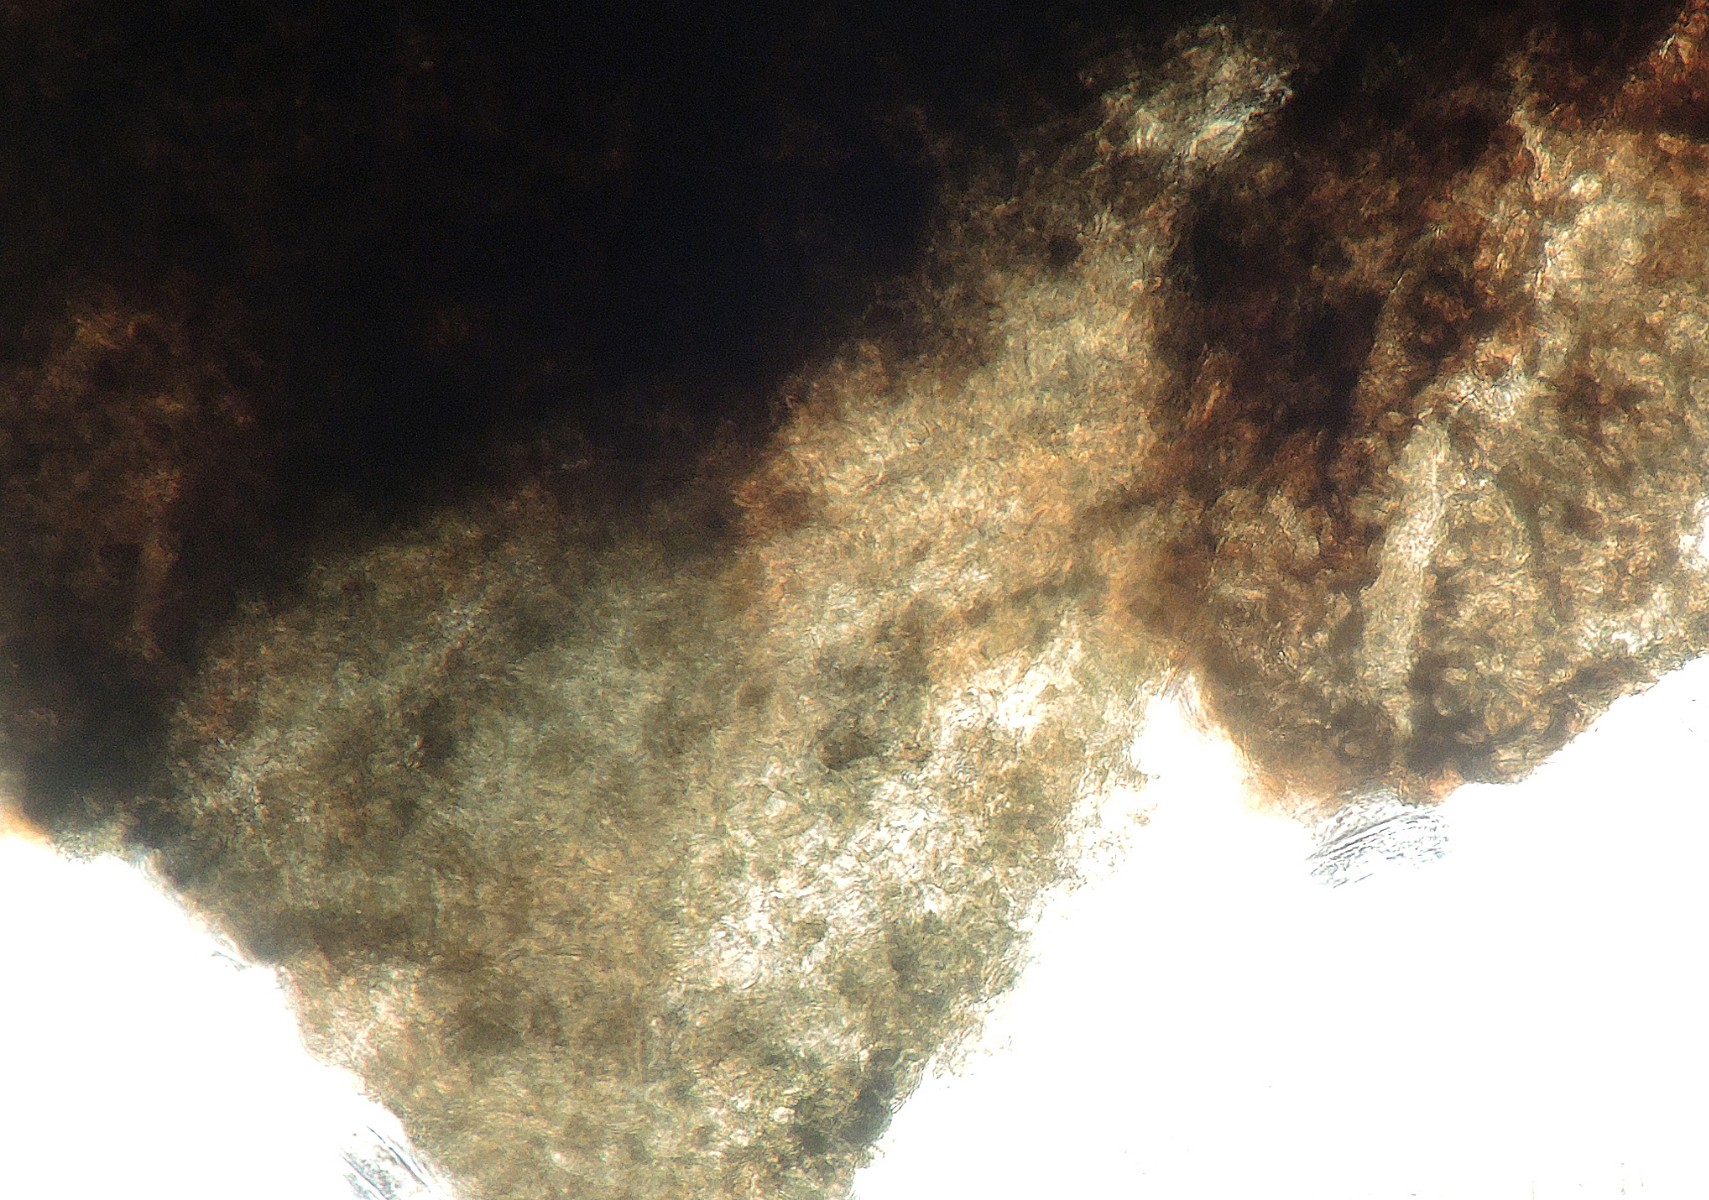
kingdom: Fungi
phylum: Ascomycota
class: Dothideomycetes
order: Pleosporales
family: Pleosporaceae
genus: Pleospora
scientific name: Pleospora vitalbae
